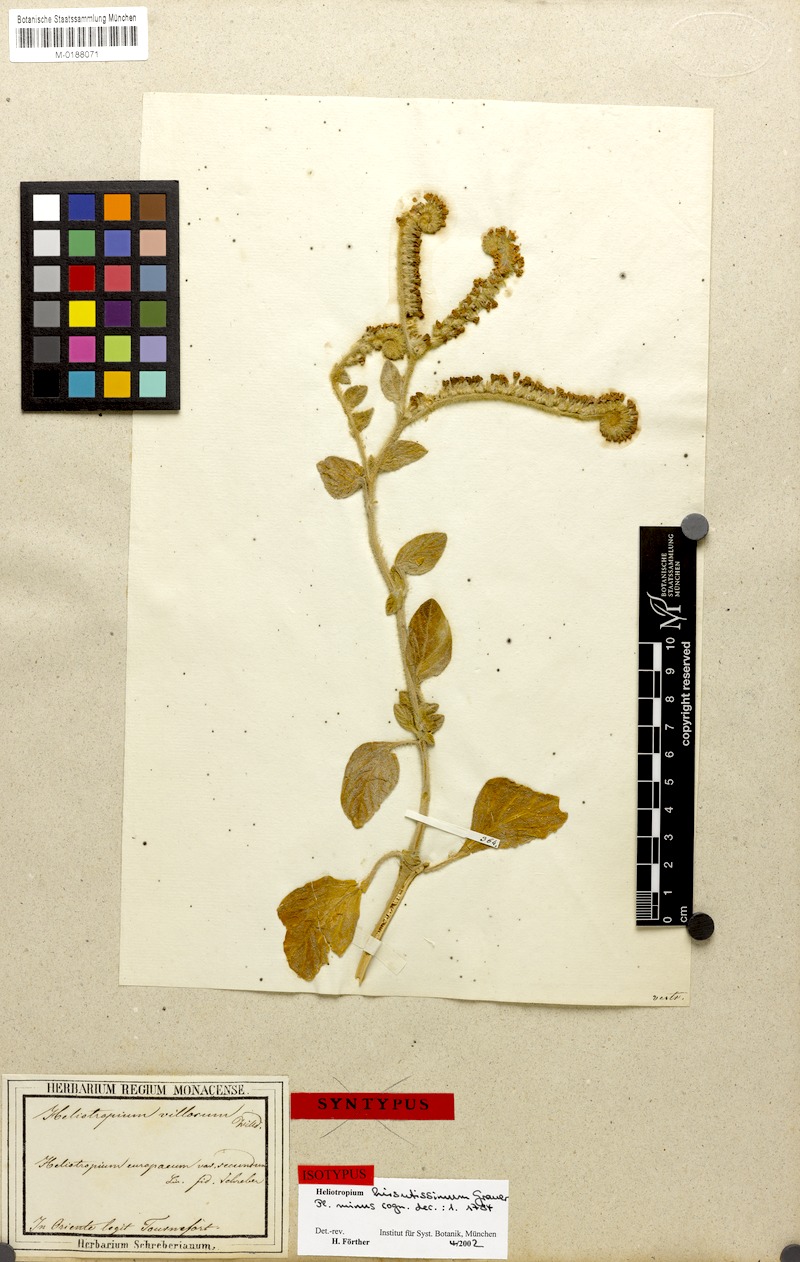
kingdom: Plantae
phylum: Tracheophyta
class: Magnoliopsida
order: Boraginales
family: Heliotropiaceae
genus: Heliotropium
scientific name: Heliotropium hirsutissimum
